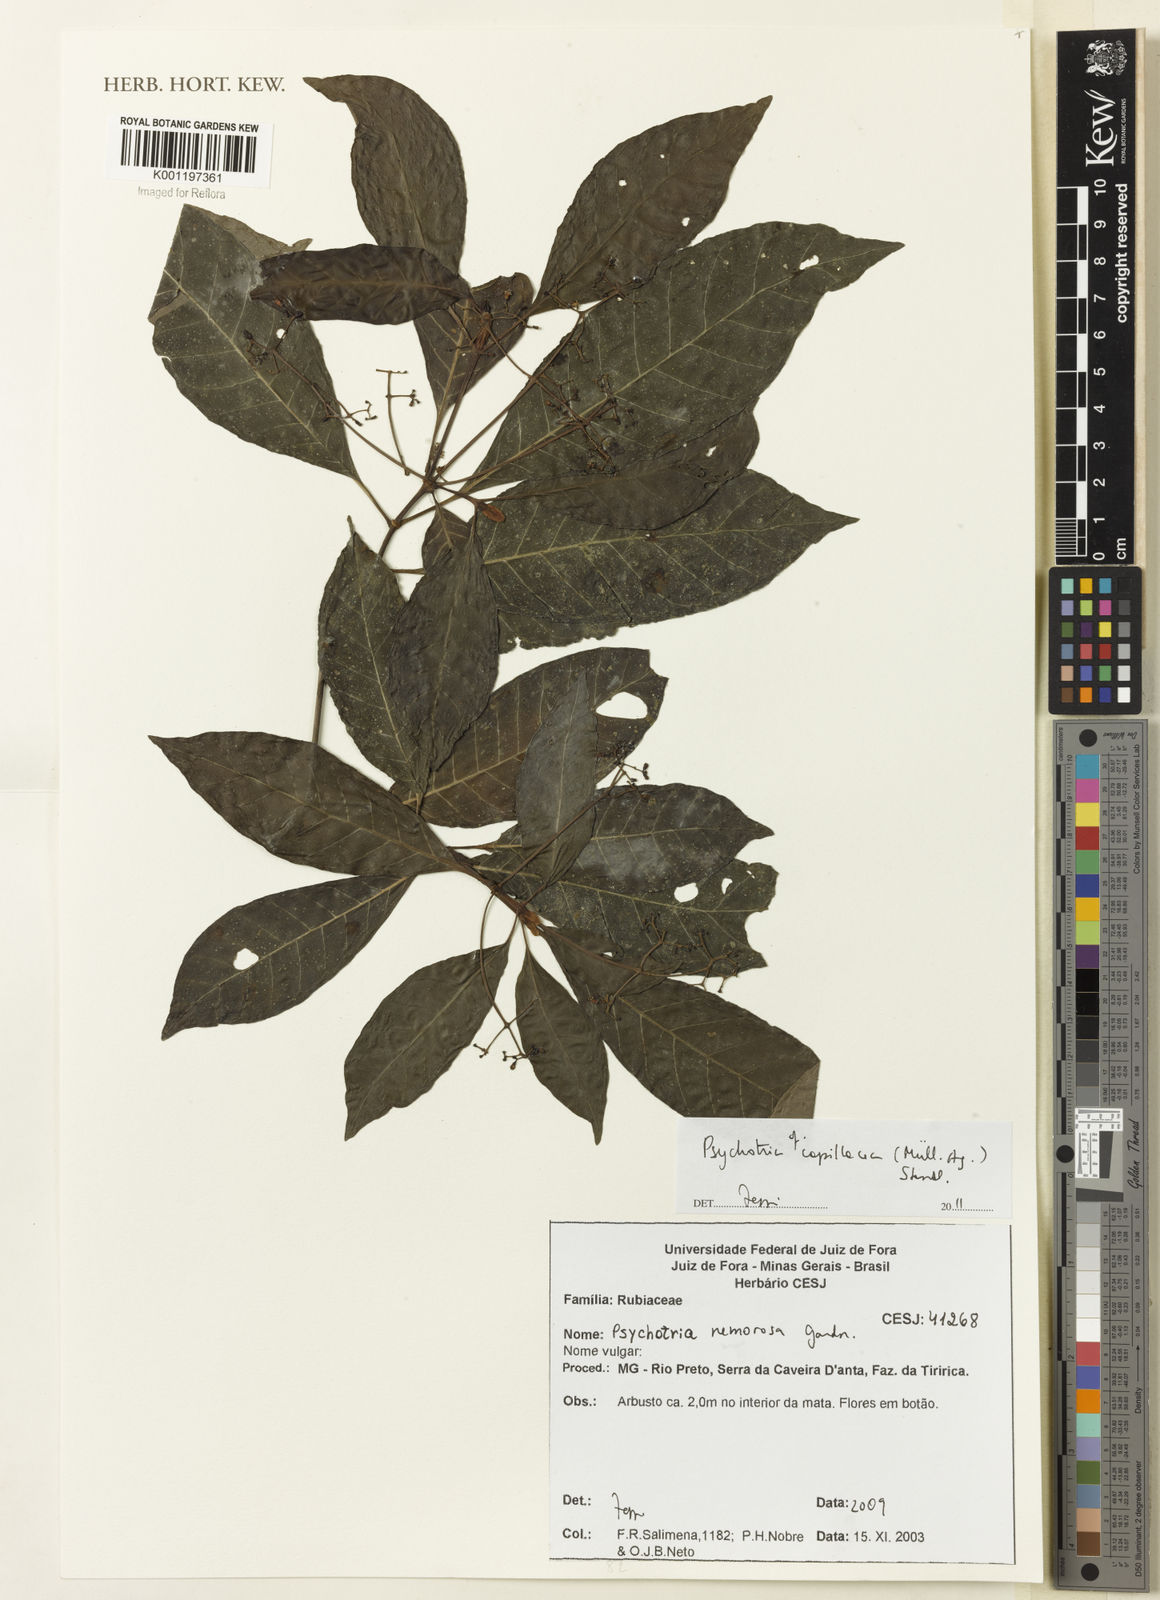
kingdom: Plantae
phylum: Tracheophyta
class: Magnoliopsida
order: Gentianales
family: Rubiaceae
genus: Psychotria
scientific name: Psychotria
